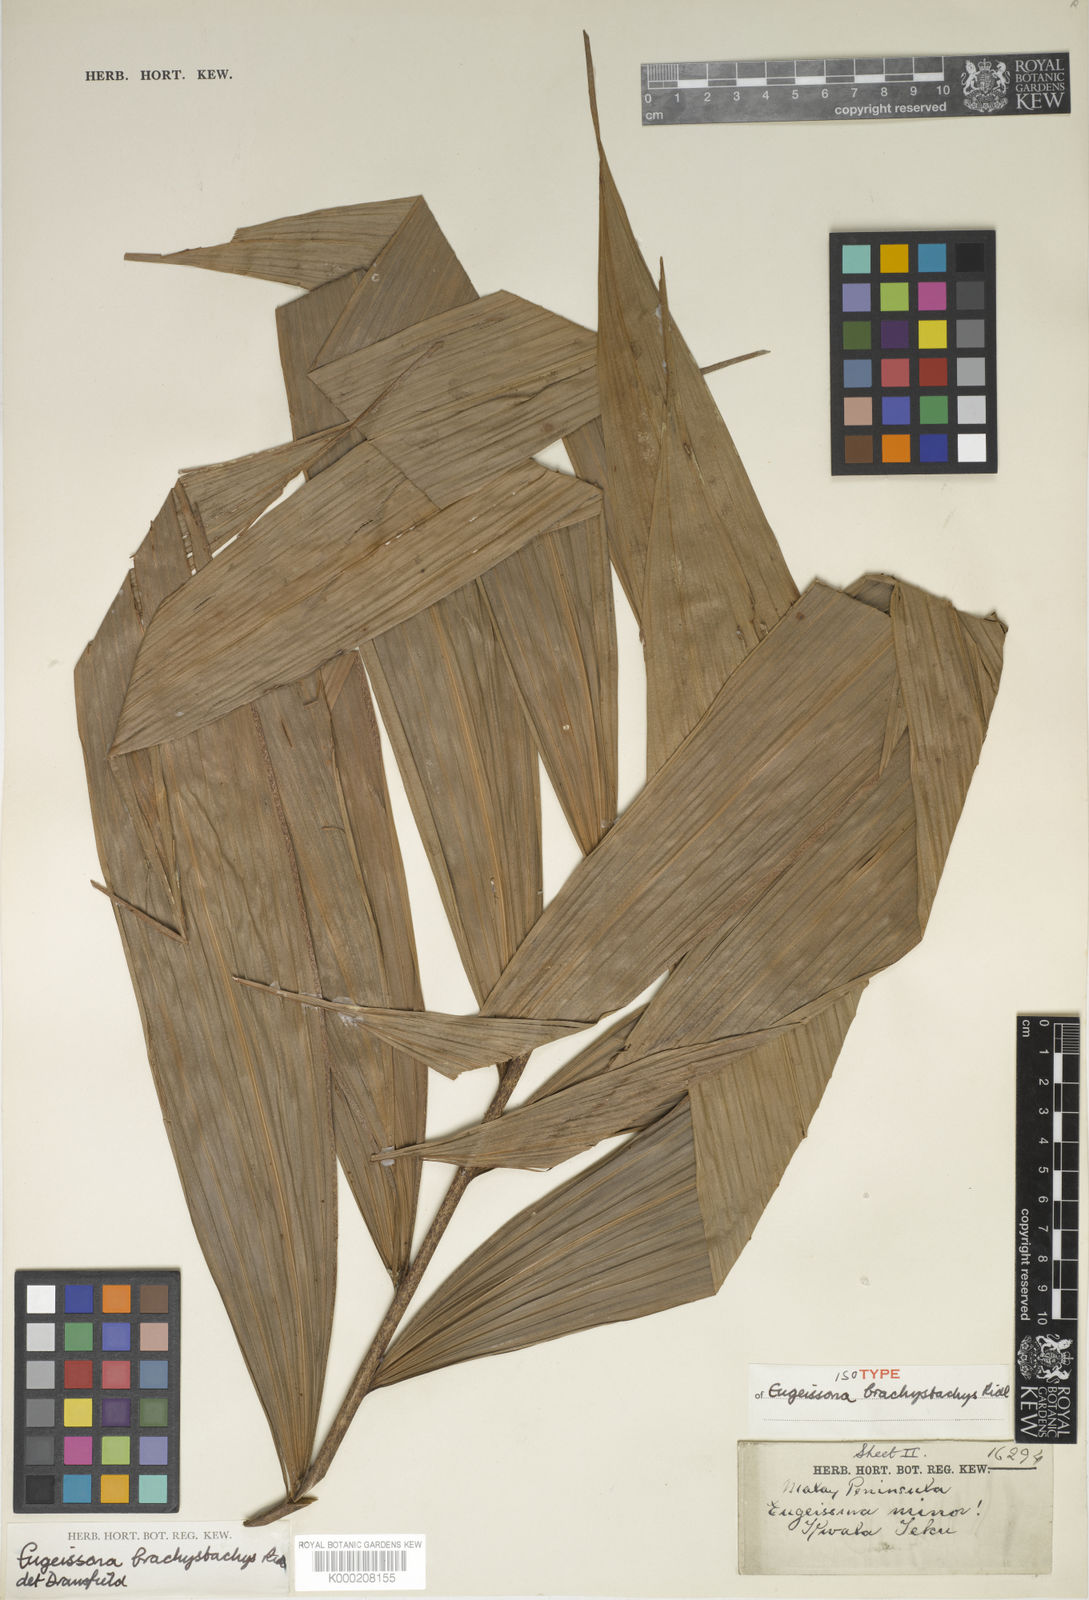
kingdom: Plantae
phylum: Tracheophyta
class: Liliopsida
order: Arecales
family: Arecaceae
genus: Eugeissona
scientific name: Eugeissona brachystachys
